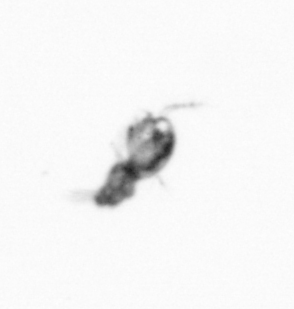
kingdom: Animalia
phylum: Arthropoda
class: Copepoda
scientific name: Copepoda
